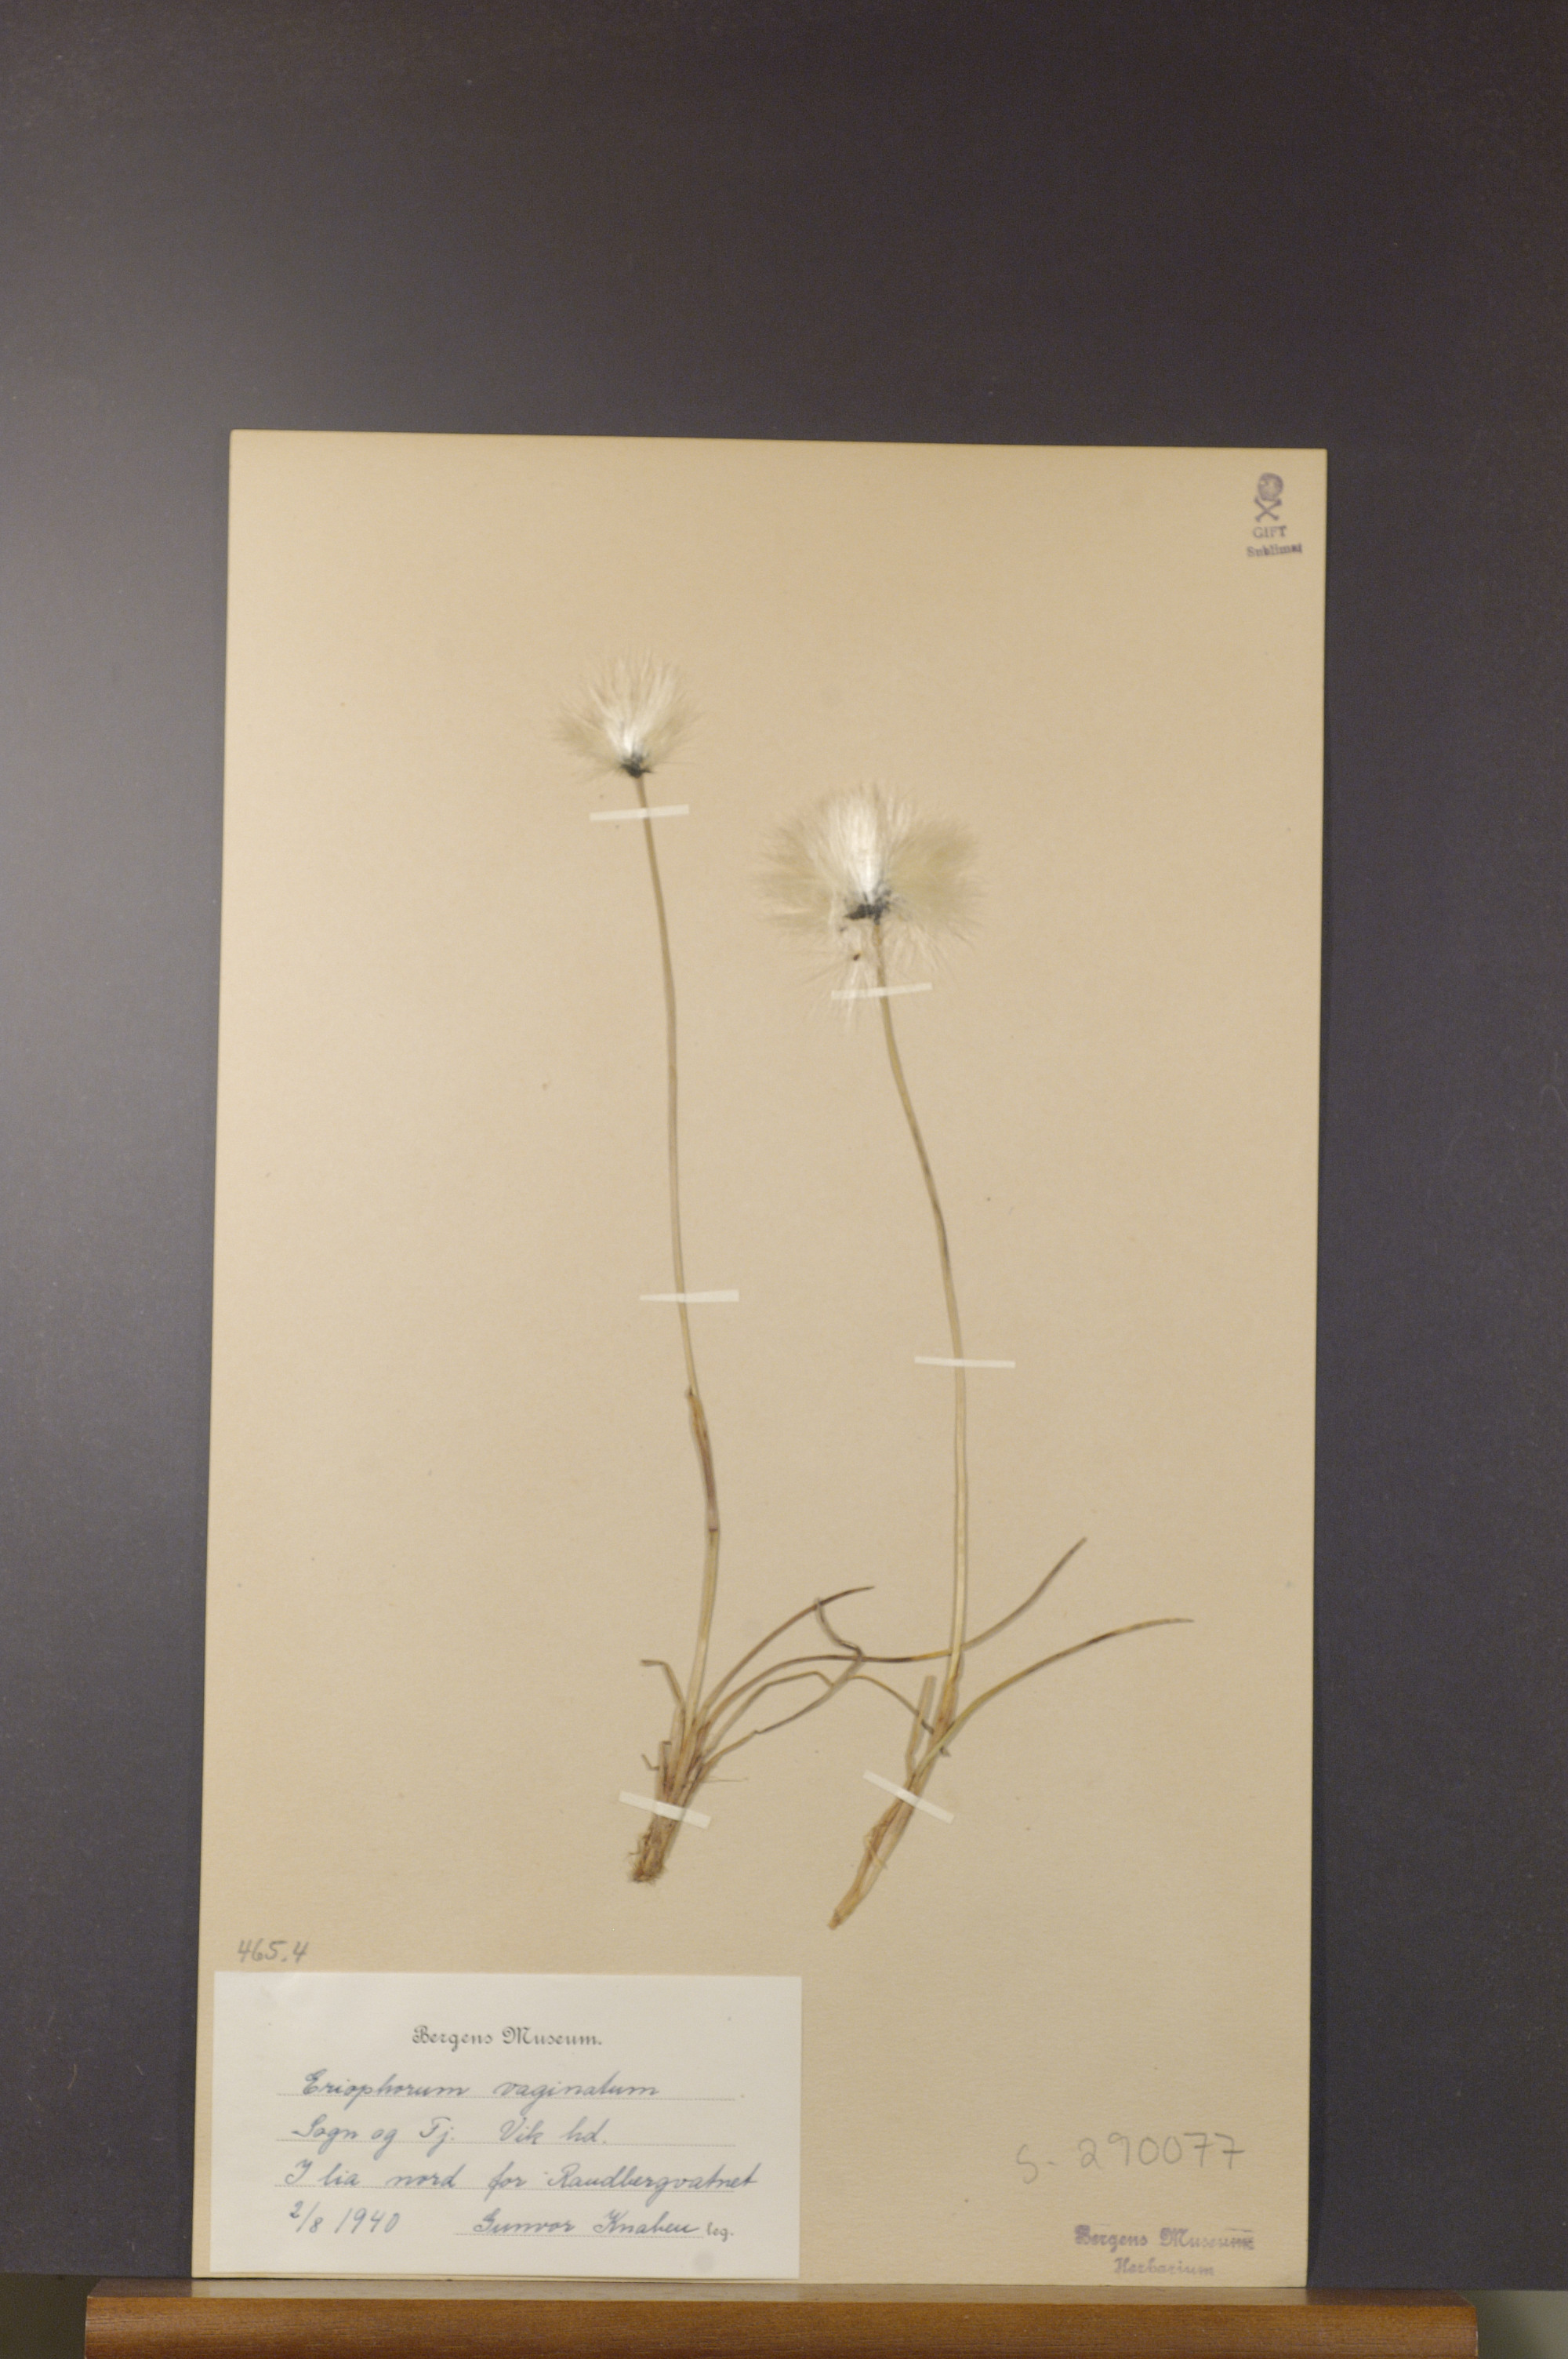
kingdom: Plantae
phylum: Tracheophyta
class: Liliopsida
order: Poales
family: Cyperaceae
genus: Eriophorum
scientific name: Eriophorum vaginatum
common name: Hare's-tail cottongrass
